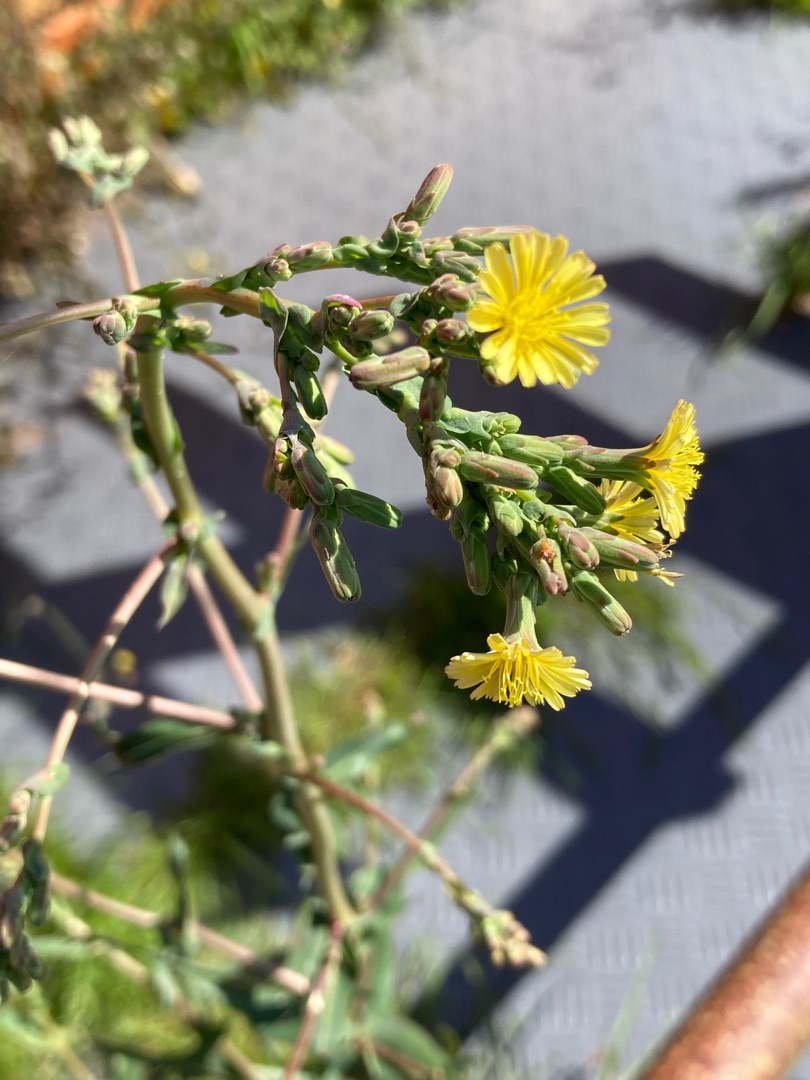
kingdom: Plantae
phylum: Tracheophyta
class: Magnoliopsida
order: Asterales
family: Asteraceae
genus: Lactuca
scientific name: Lactuca serriola
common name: Tornet salat
